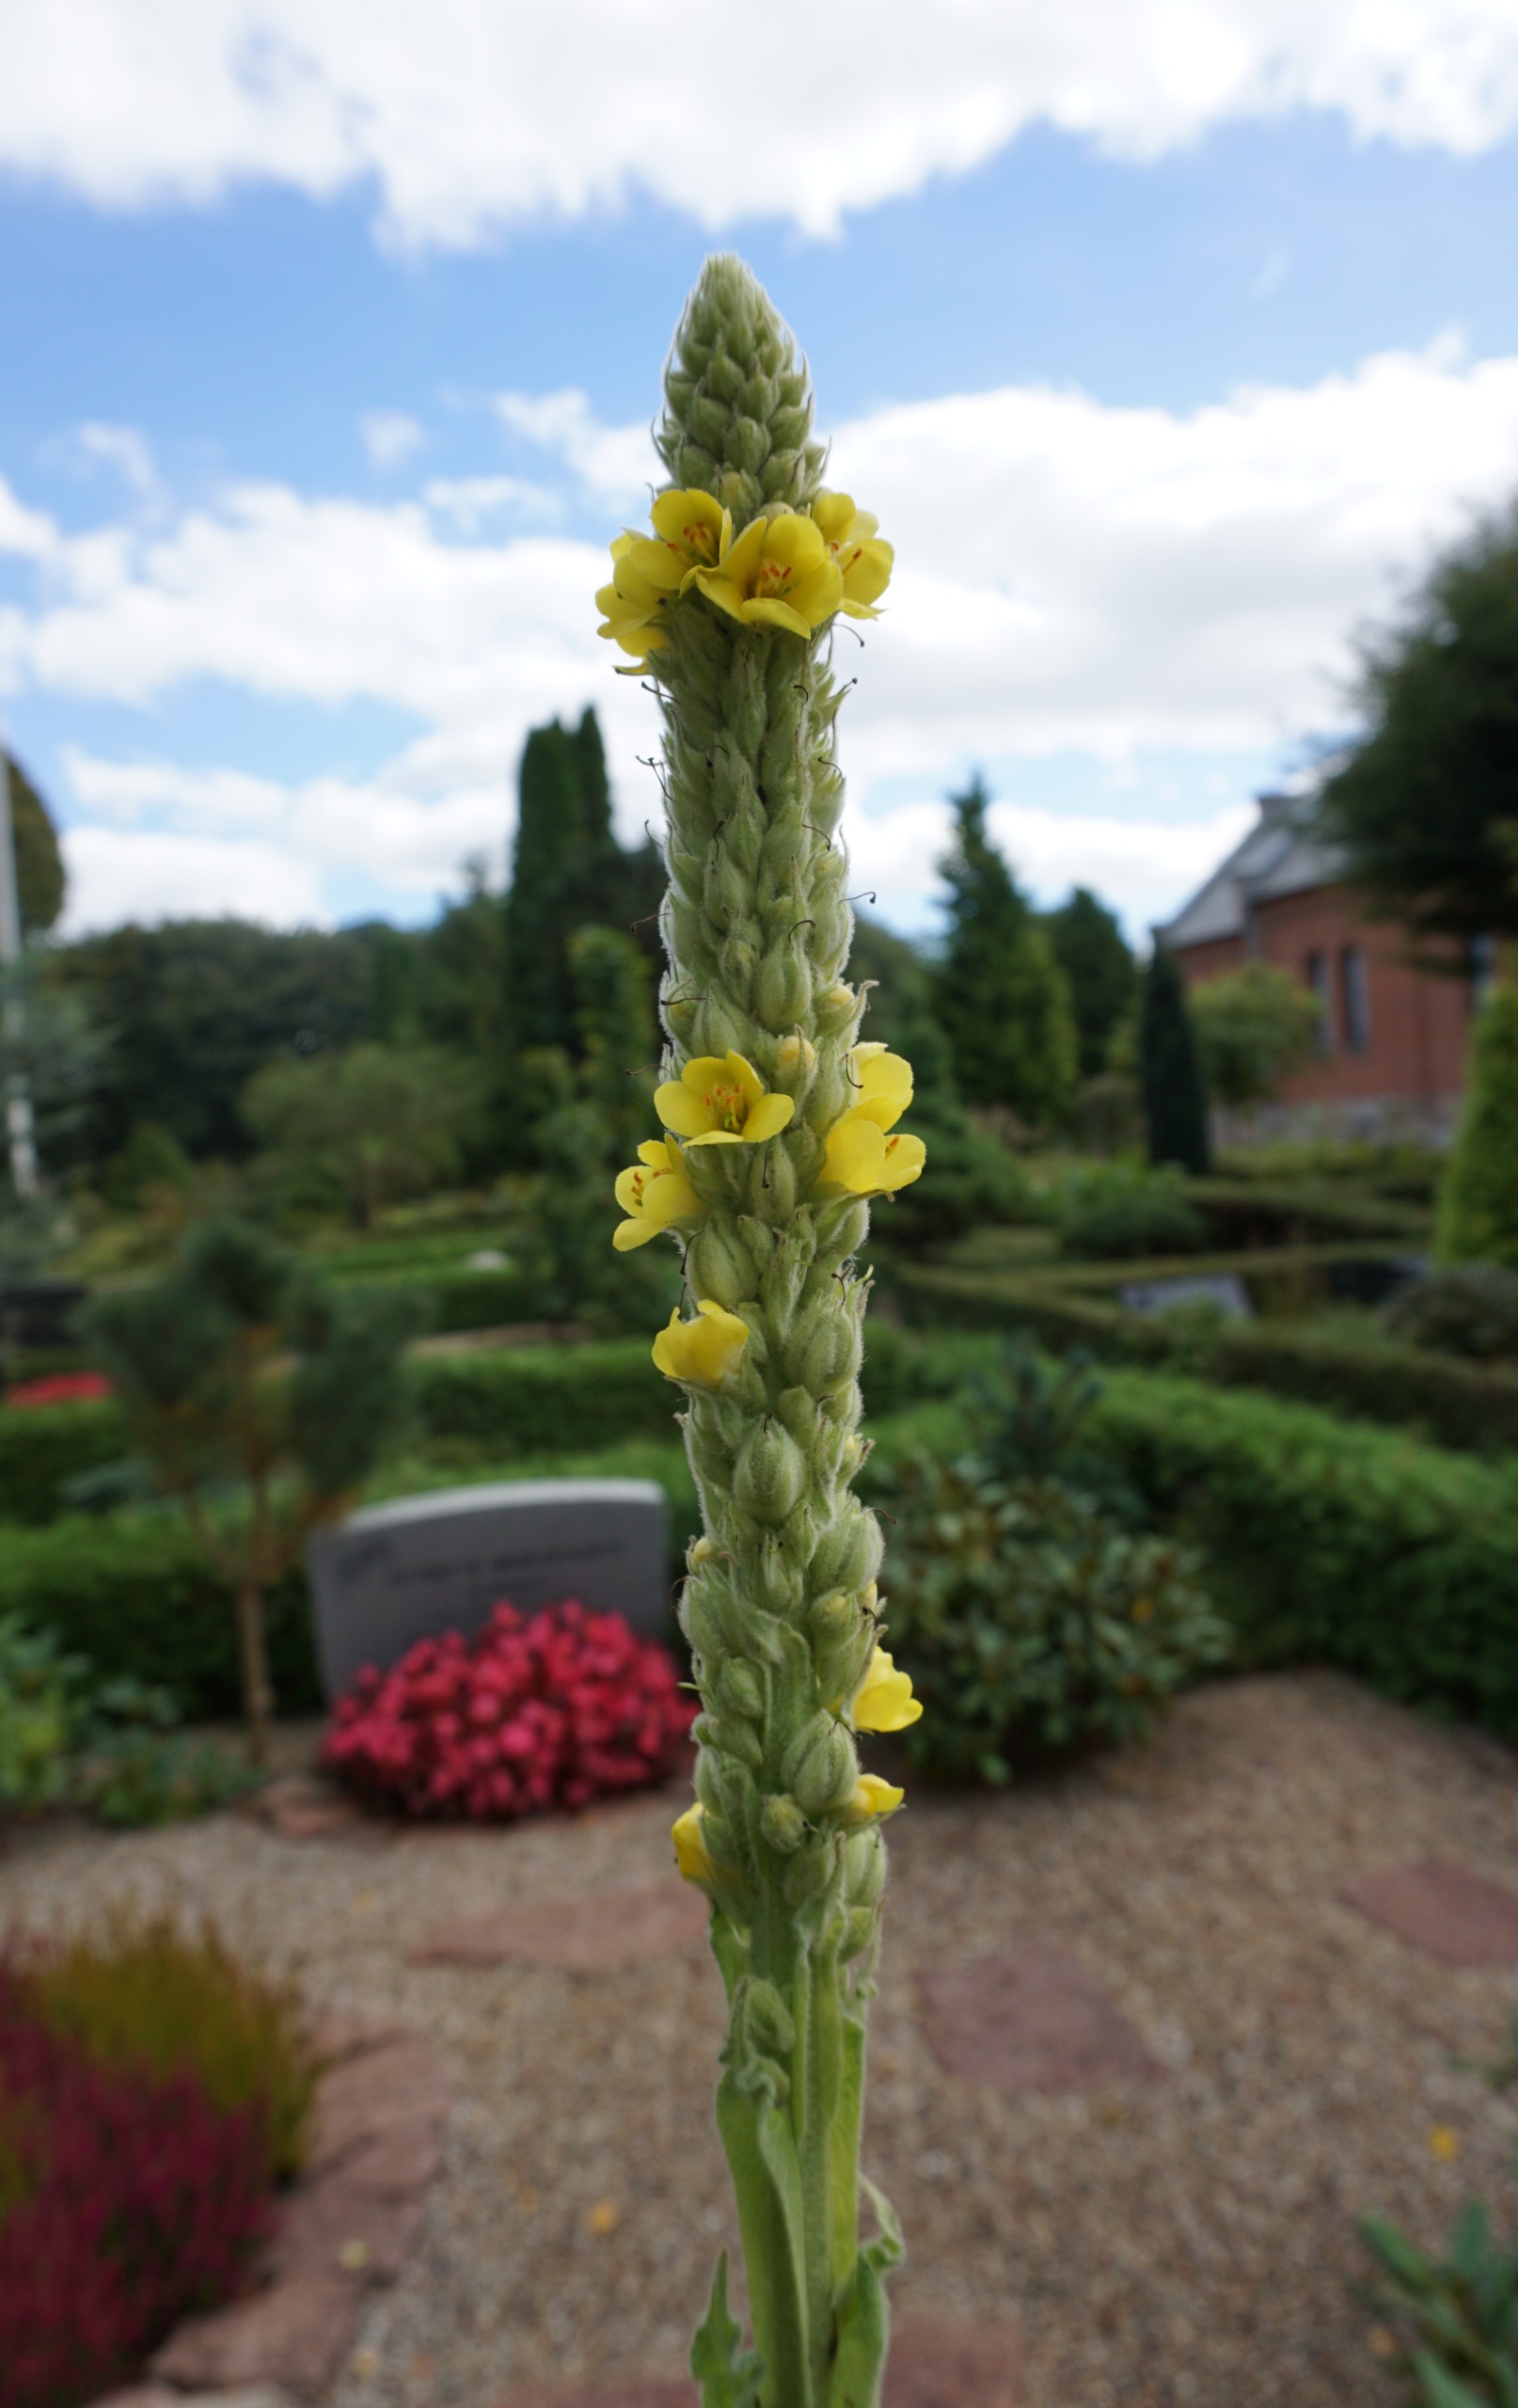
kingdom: Plantae
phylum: Tracheophyta
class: Magnoliopsida
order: Lamiales
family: Scrophulariaceae
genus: Verbascum
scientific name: Verbascum thapsus
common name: Filtbladet kongelys
